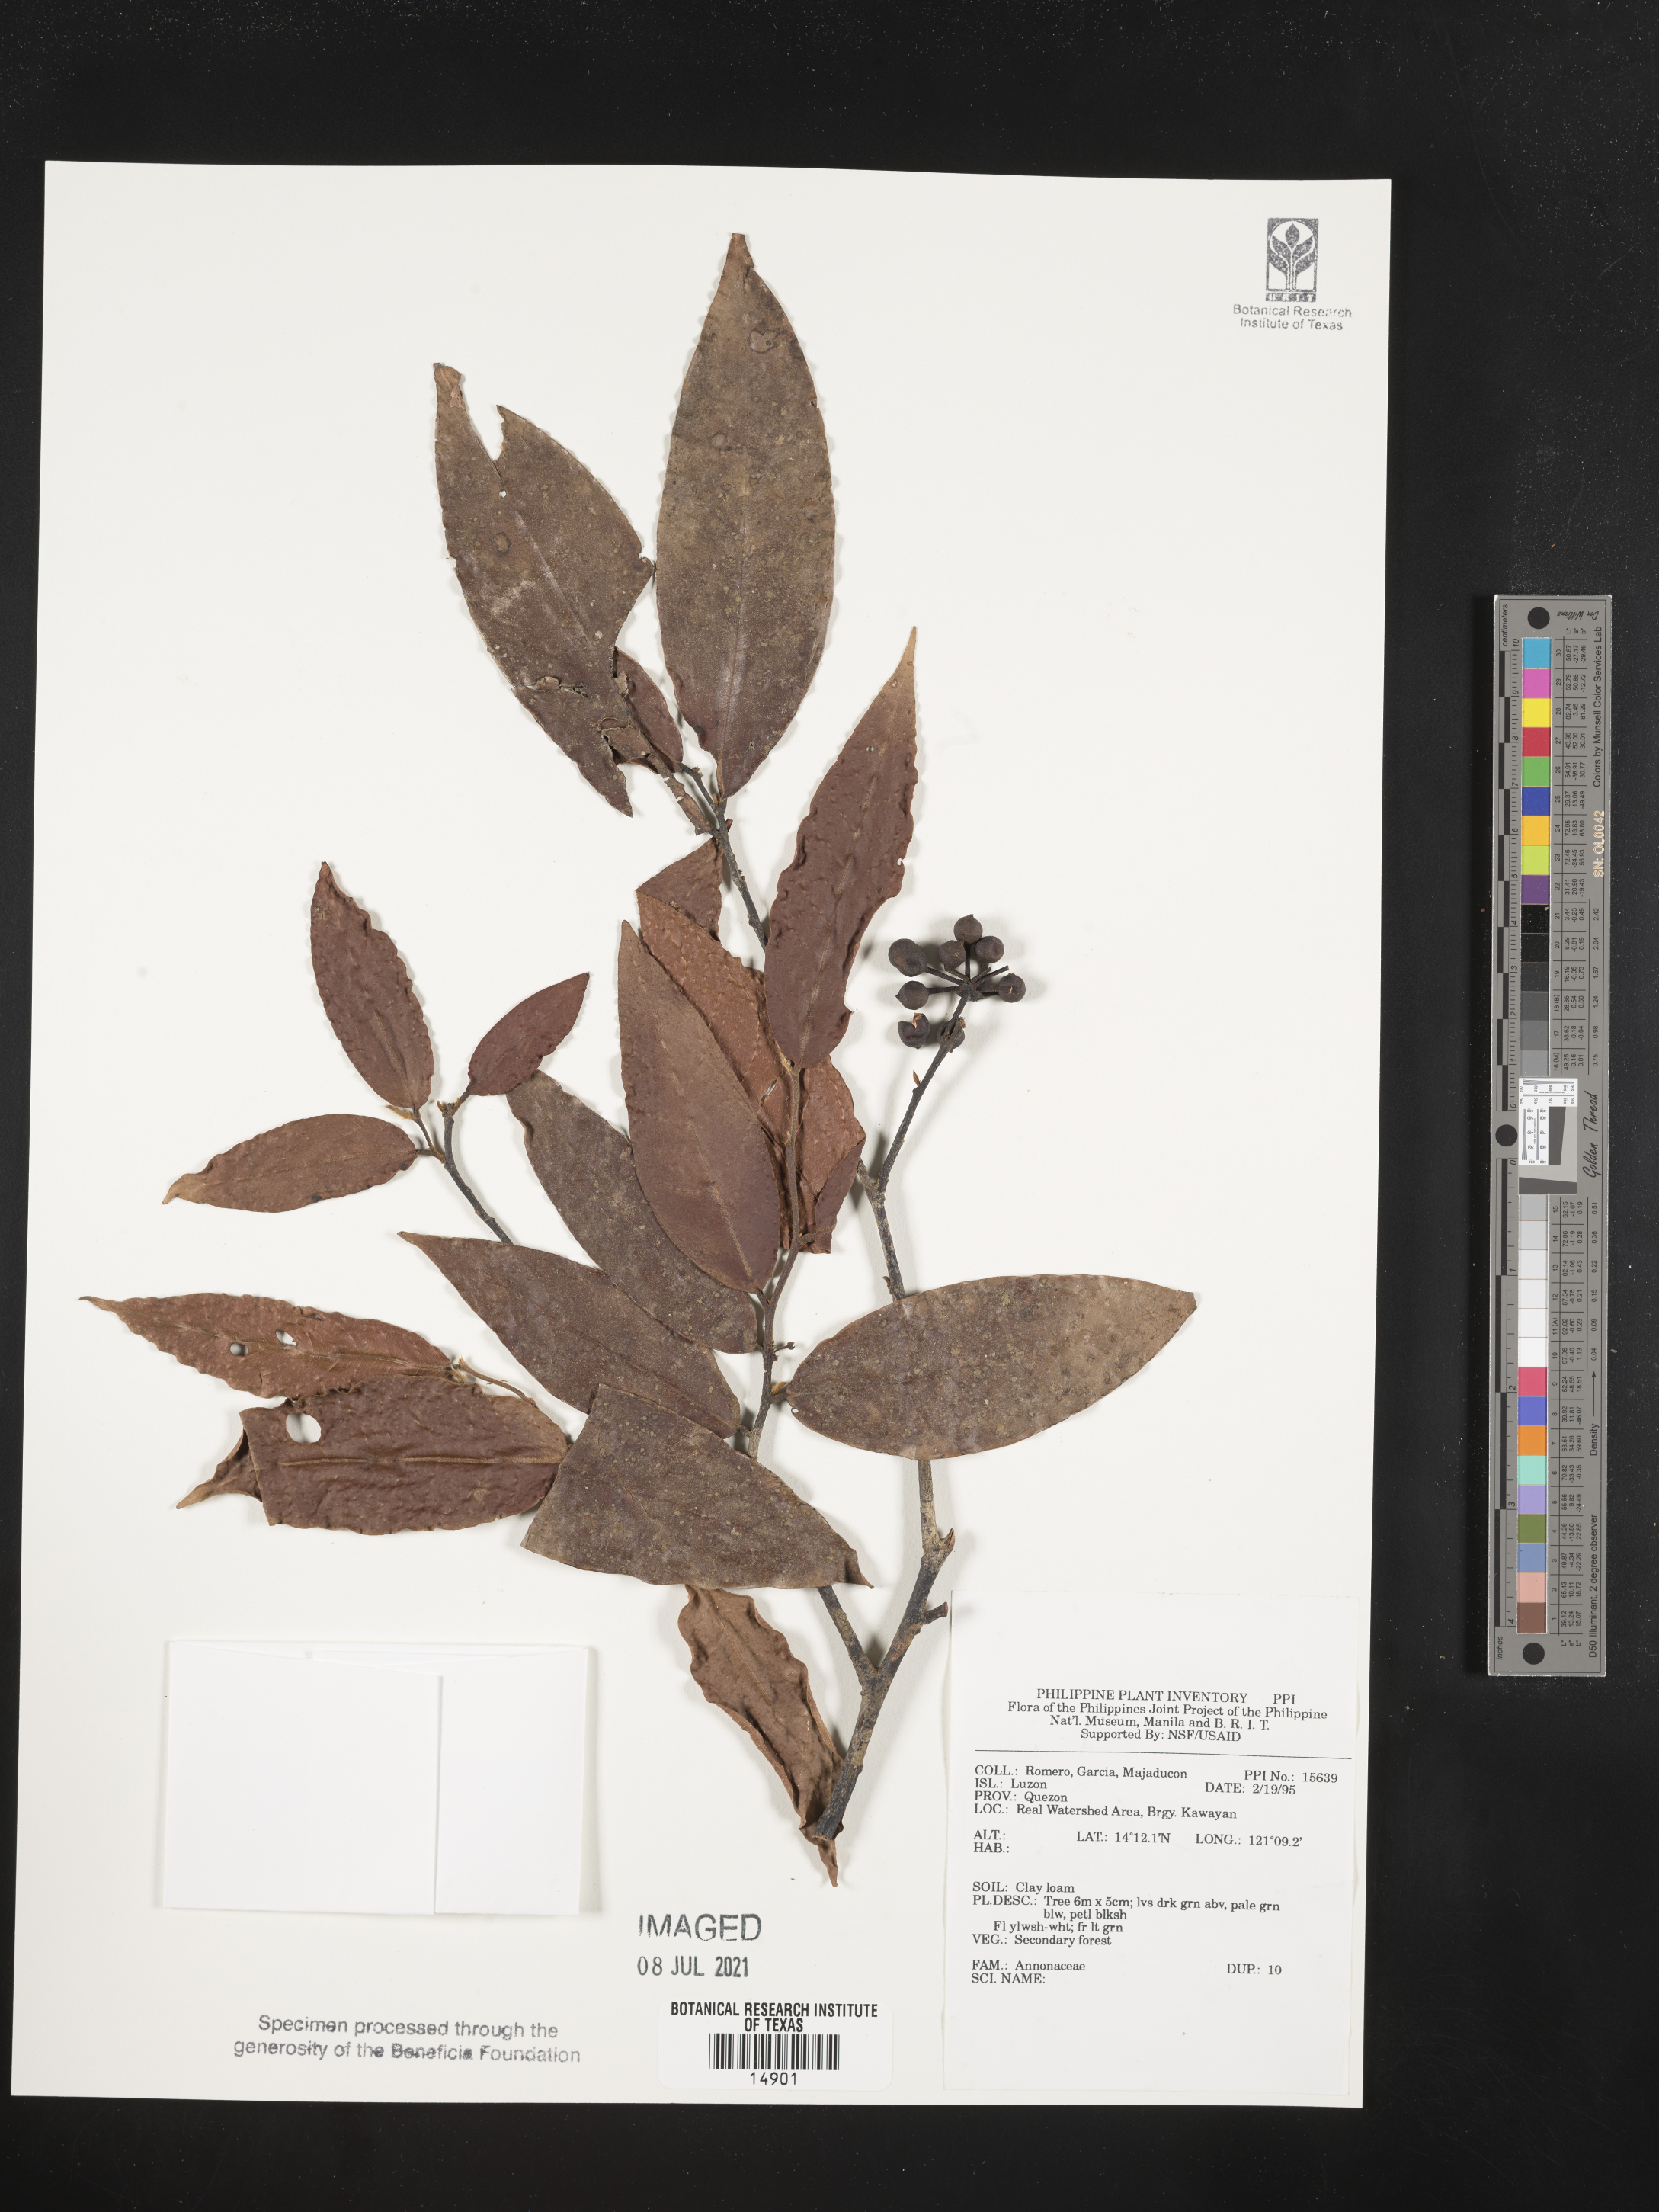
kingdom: Plantae
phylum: Tracheophyta
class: Magnoliopsida
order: Magnoliales
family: Annonaceae
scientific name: Annonaceae
